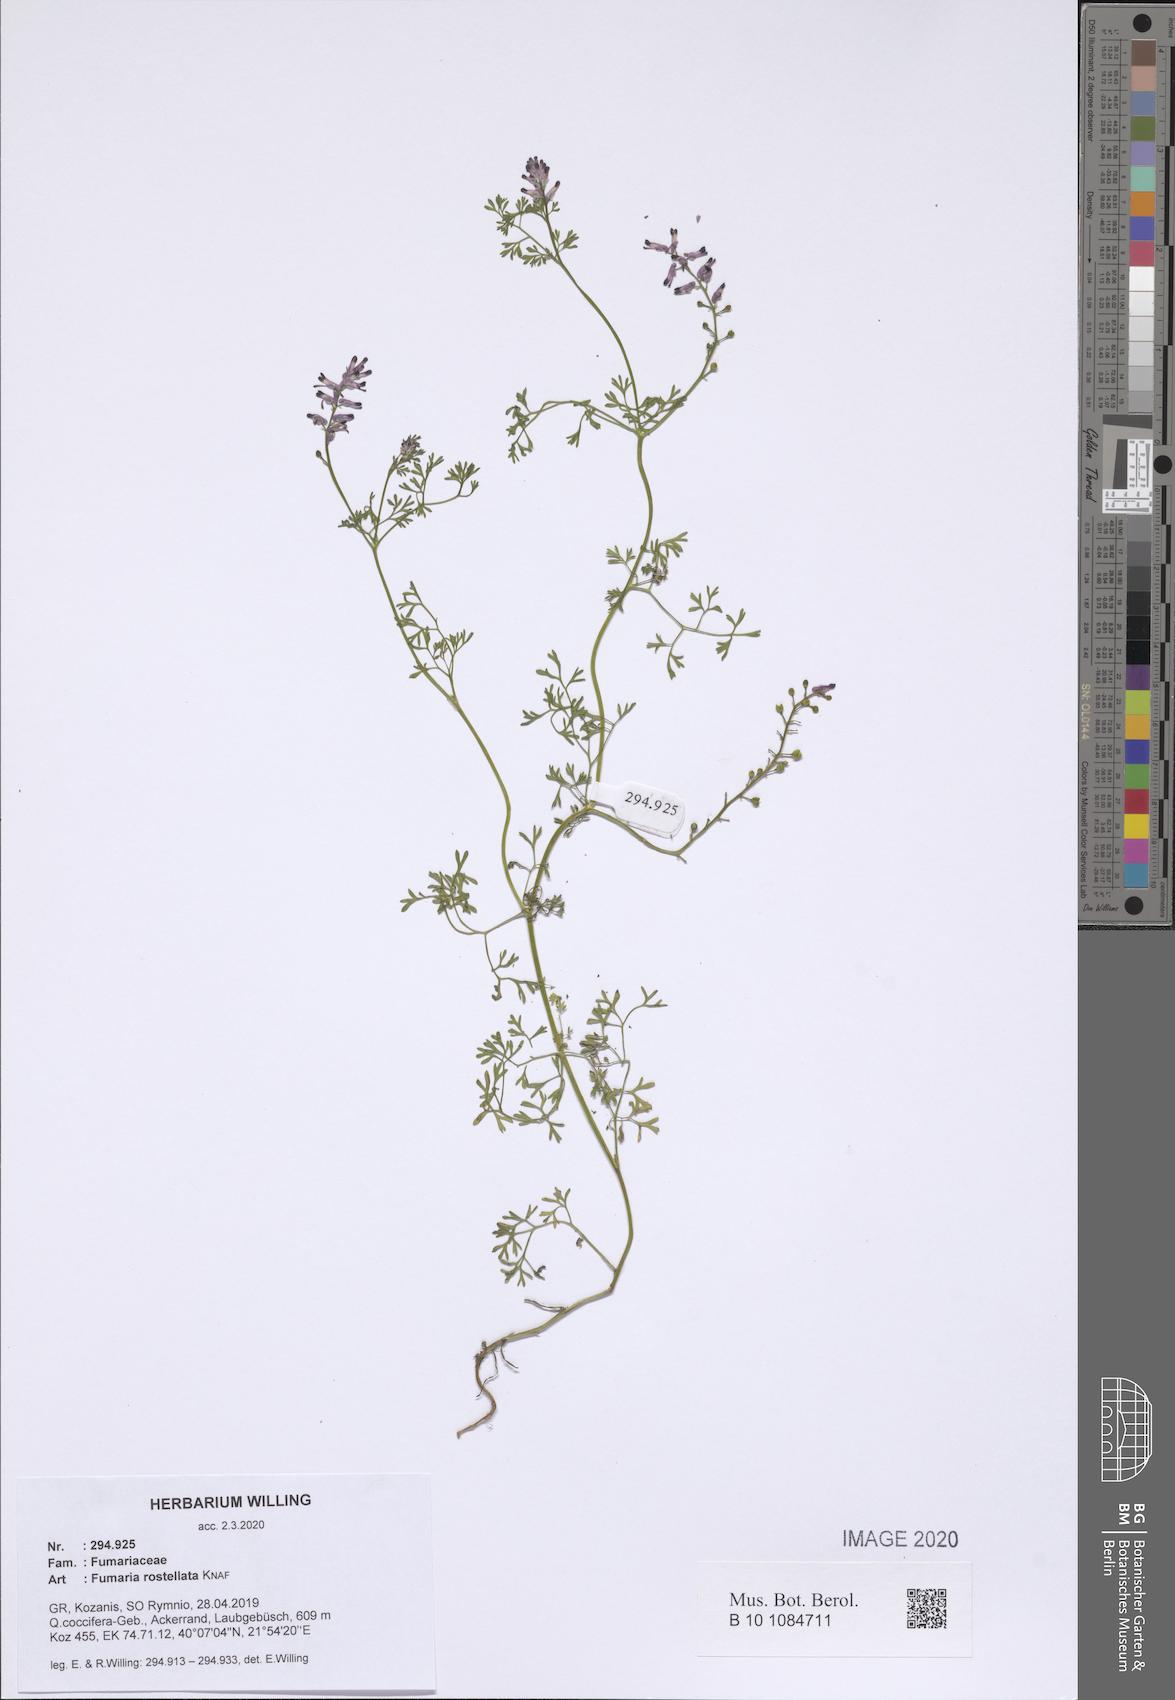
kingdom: Plantae
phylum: Tracheophyta
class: Magnoliopsida
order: Ranunculales
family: Papaveraceae
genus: Fumaria
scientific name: Fumaria rostellata
